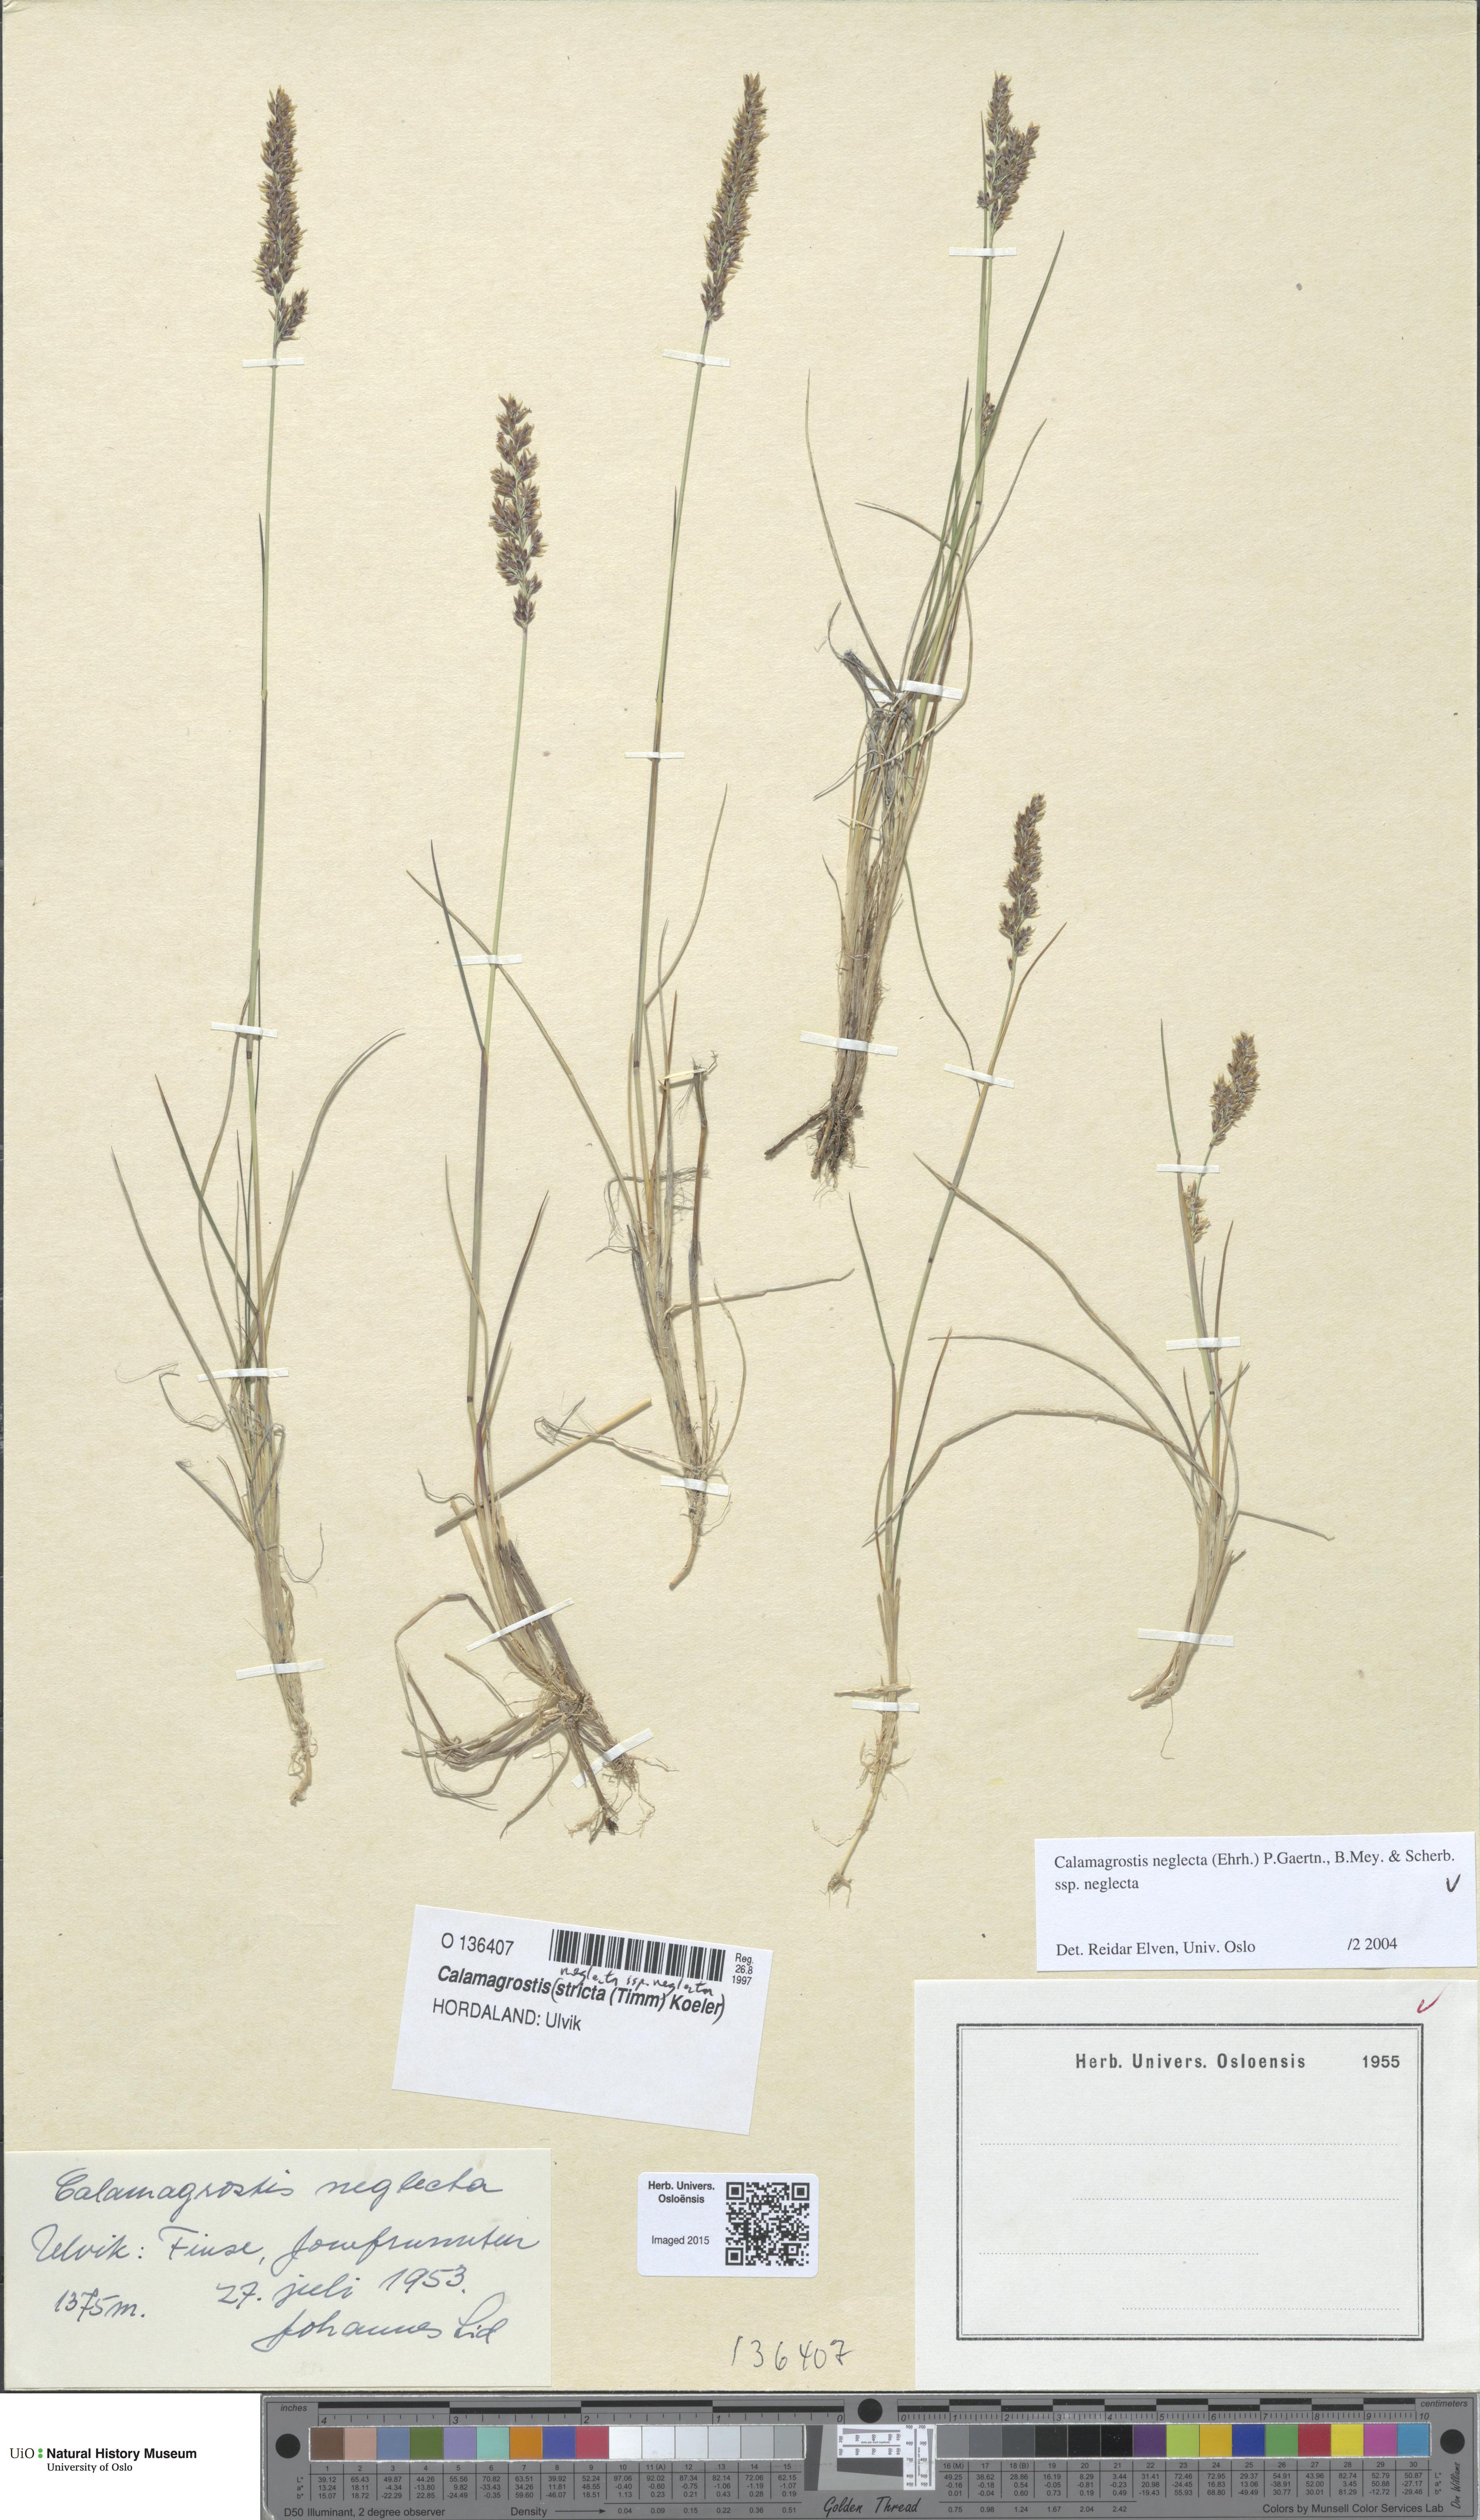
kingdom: Plantae
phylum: Tracheophyta
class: Liliopsida
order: Poales
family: Poaceae
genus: Achnatherum
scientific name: Achnatherum calamagrostis
